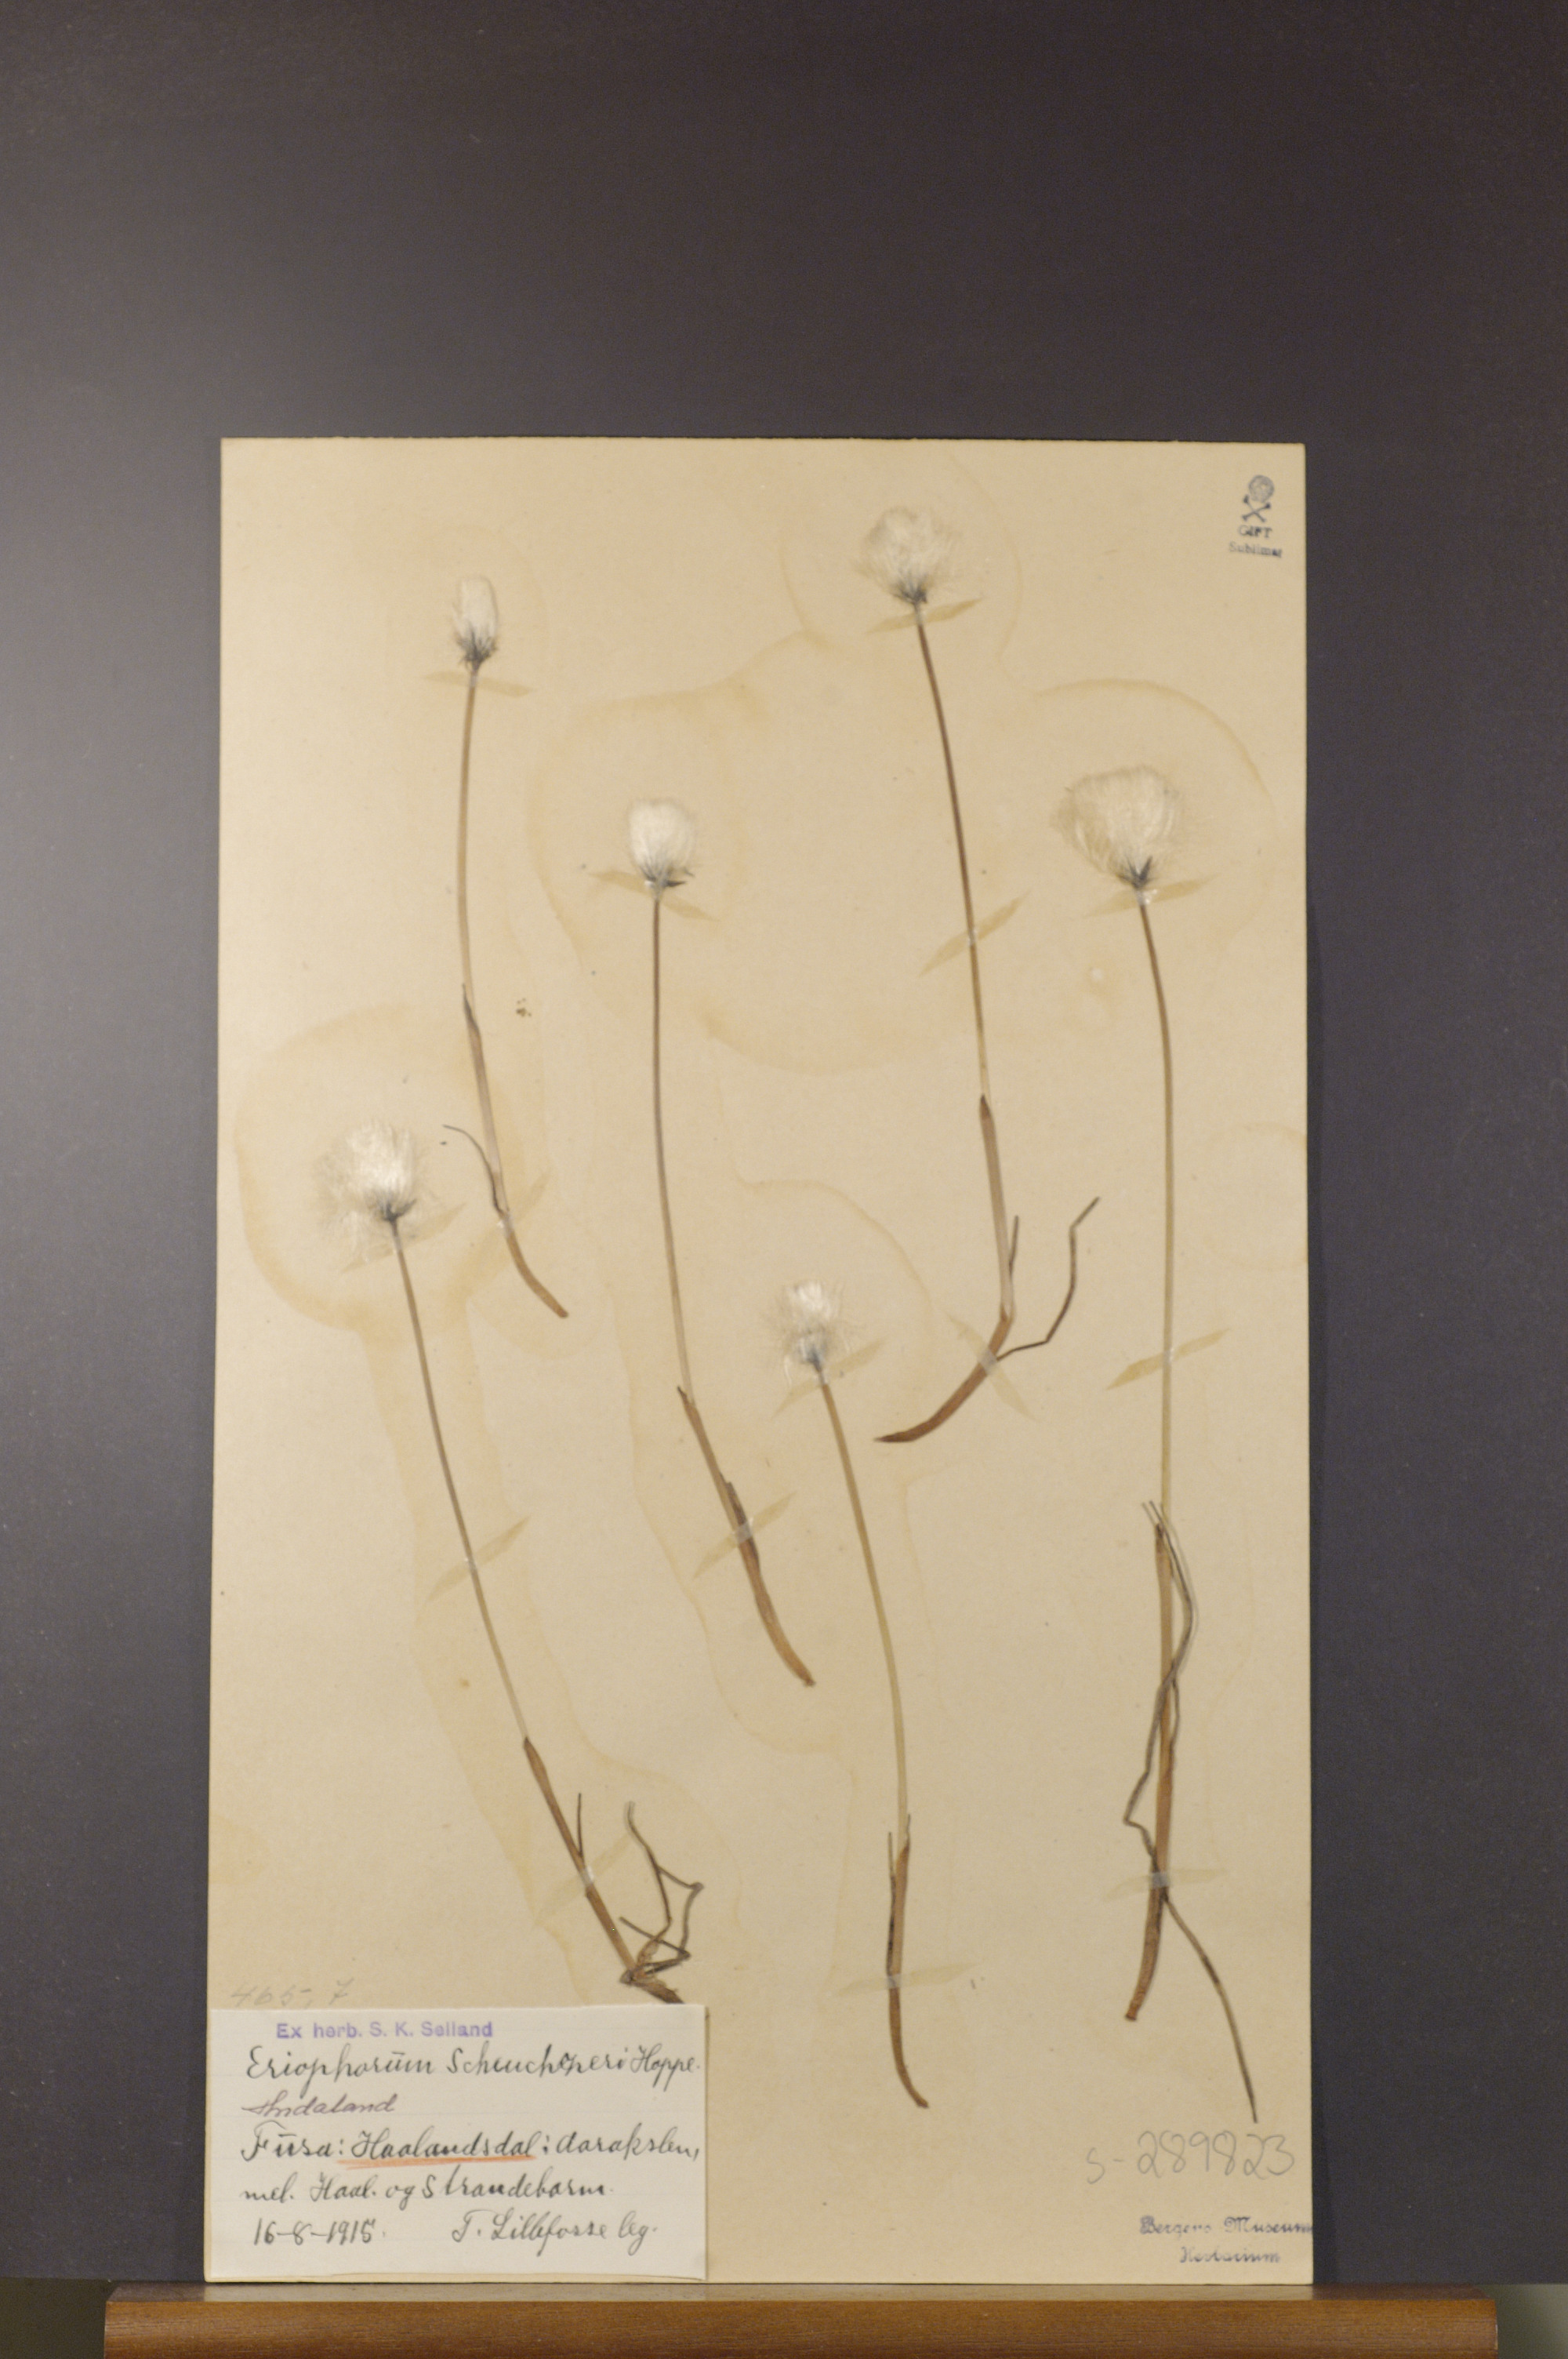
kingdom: Plantae
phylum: Tracheophyta
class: Liliopsida
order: Poales
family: Cyperaceae
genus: Eriophorum
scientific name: Eriophorum scheuchzeri
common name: Scheuchzer's cottongrass
